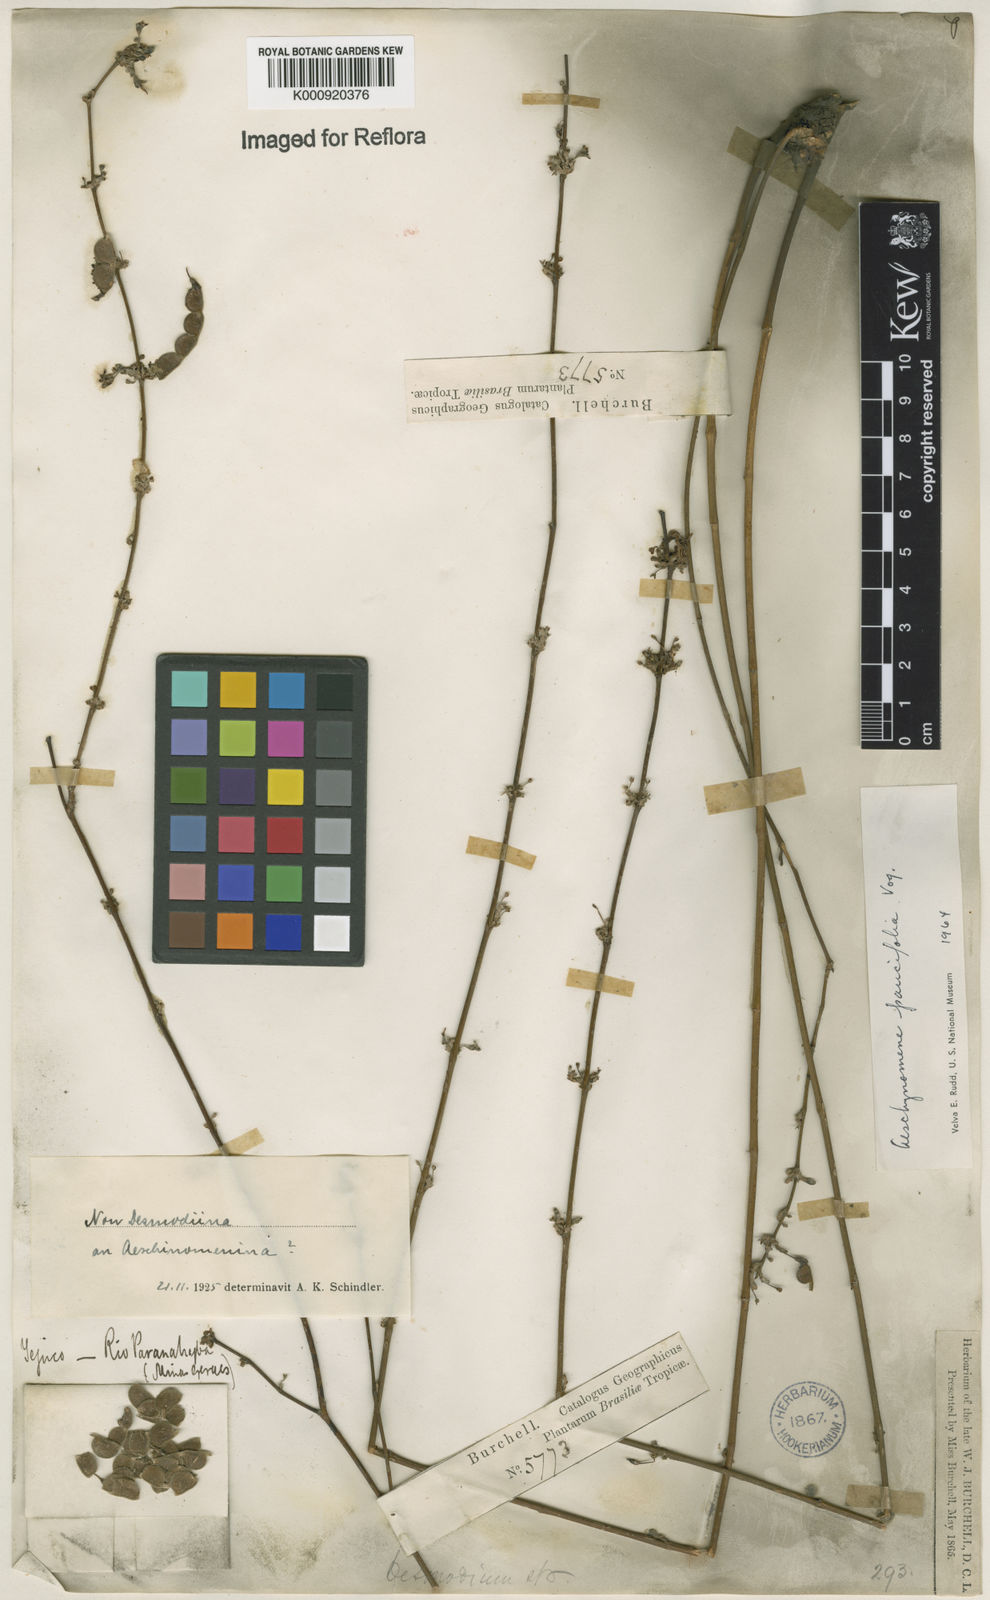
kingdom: Plantae
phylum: Tracheophyta
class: Magnoliopsida
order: Fabales
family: Fabaceae
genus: Ctenodon
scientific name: Ctenodon paucifolius
